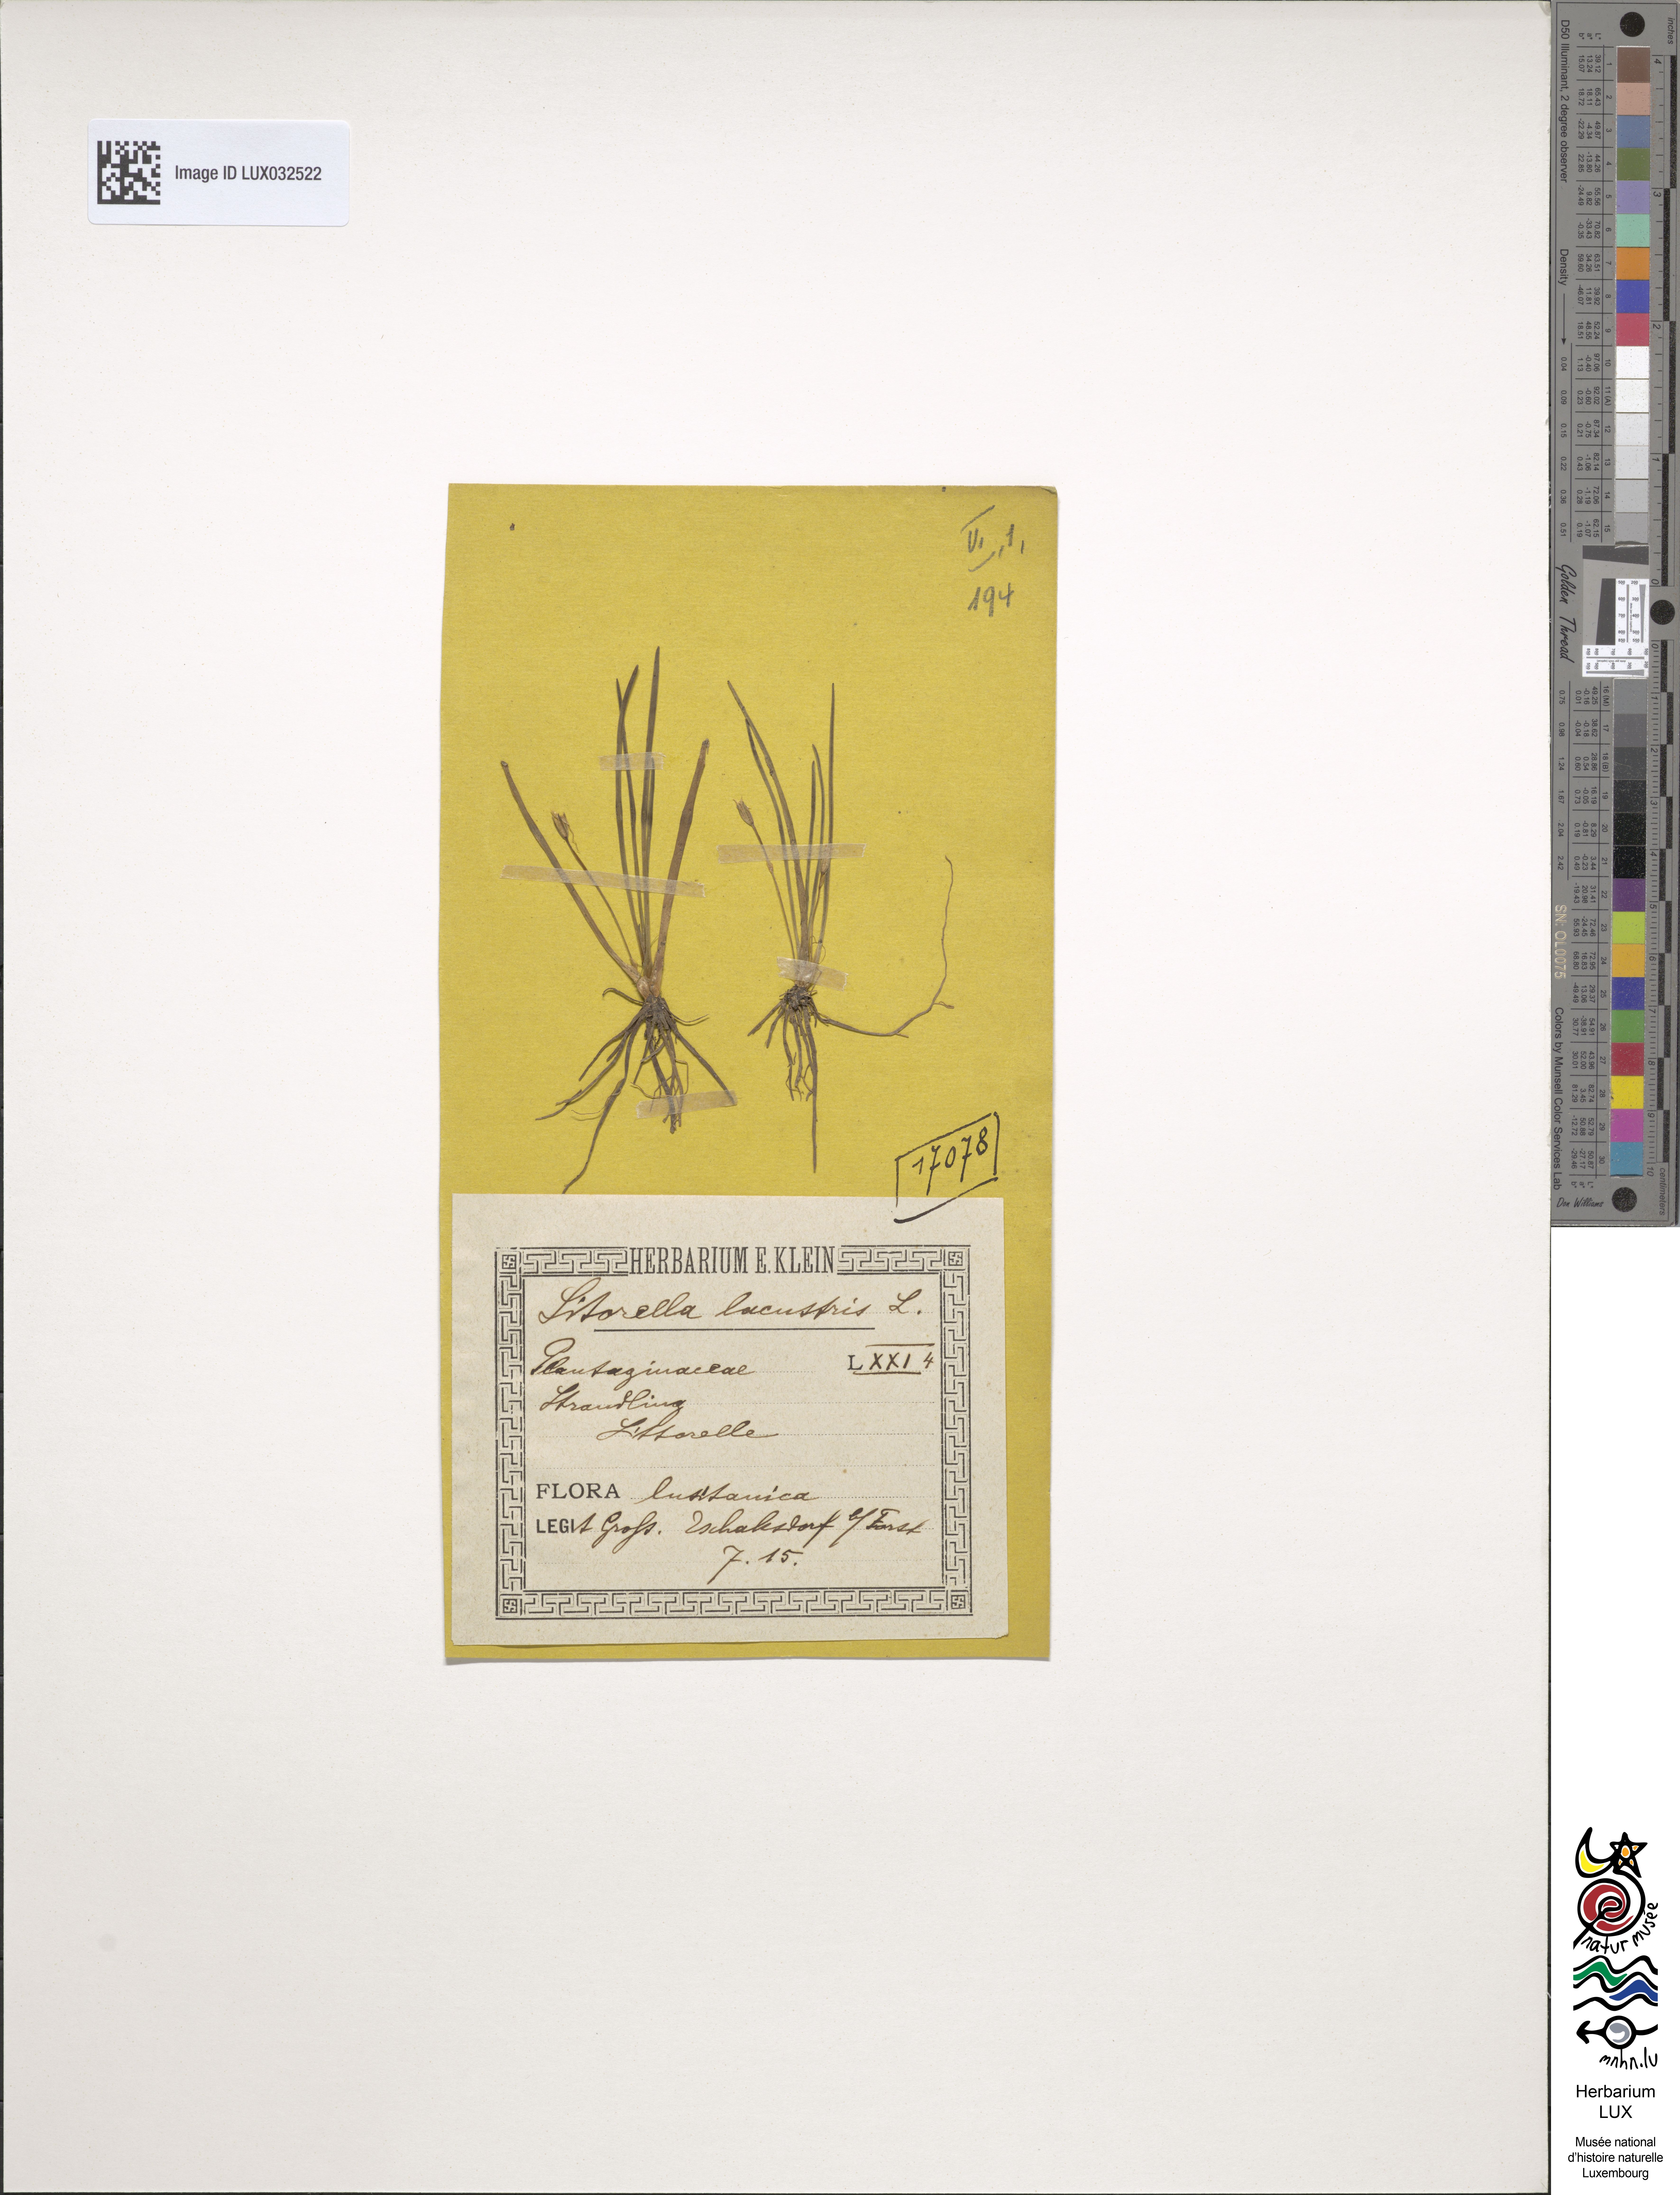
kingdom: Plantae
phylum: Tracheophyta
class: Magnoliopsida
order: Lamiales
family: Plantaginaceae
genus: Littorella
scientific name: Littorella uniflora
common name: Shoreweed
